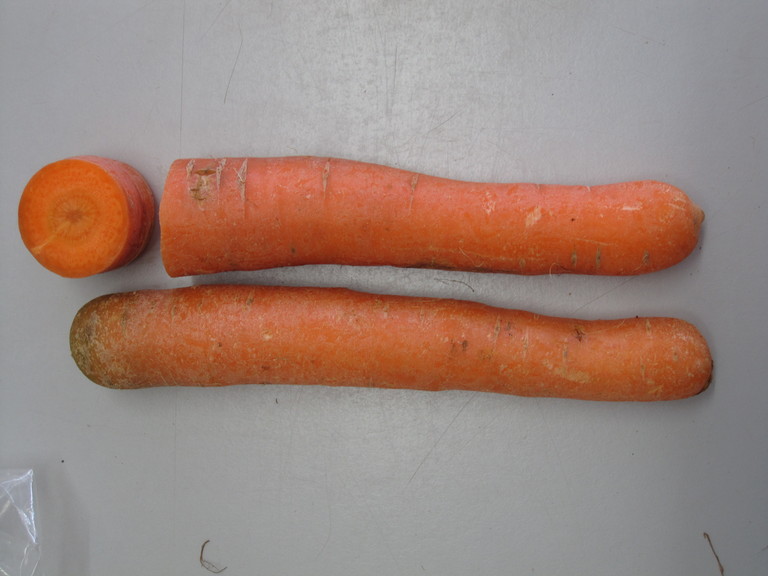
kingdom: Plantae
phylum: Tracheophyta
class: Magnoliopsida
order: Apiales
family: Apiaceae
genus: Daucus
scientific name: Daucus carota
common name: Wild carrot
